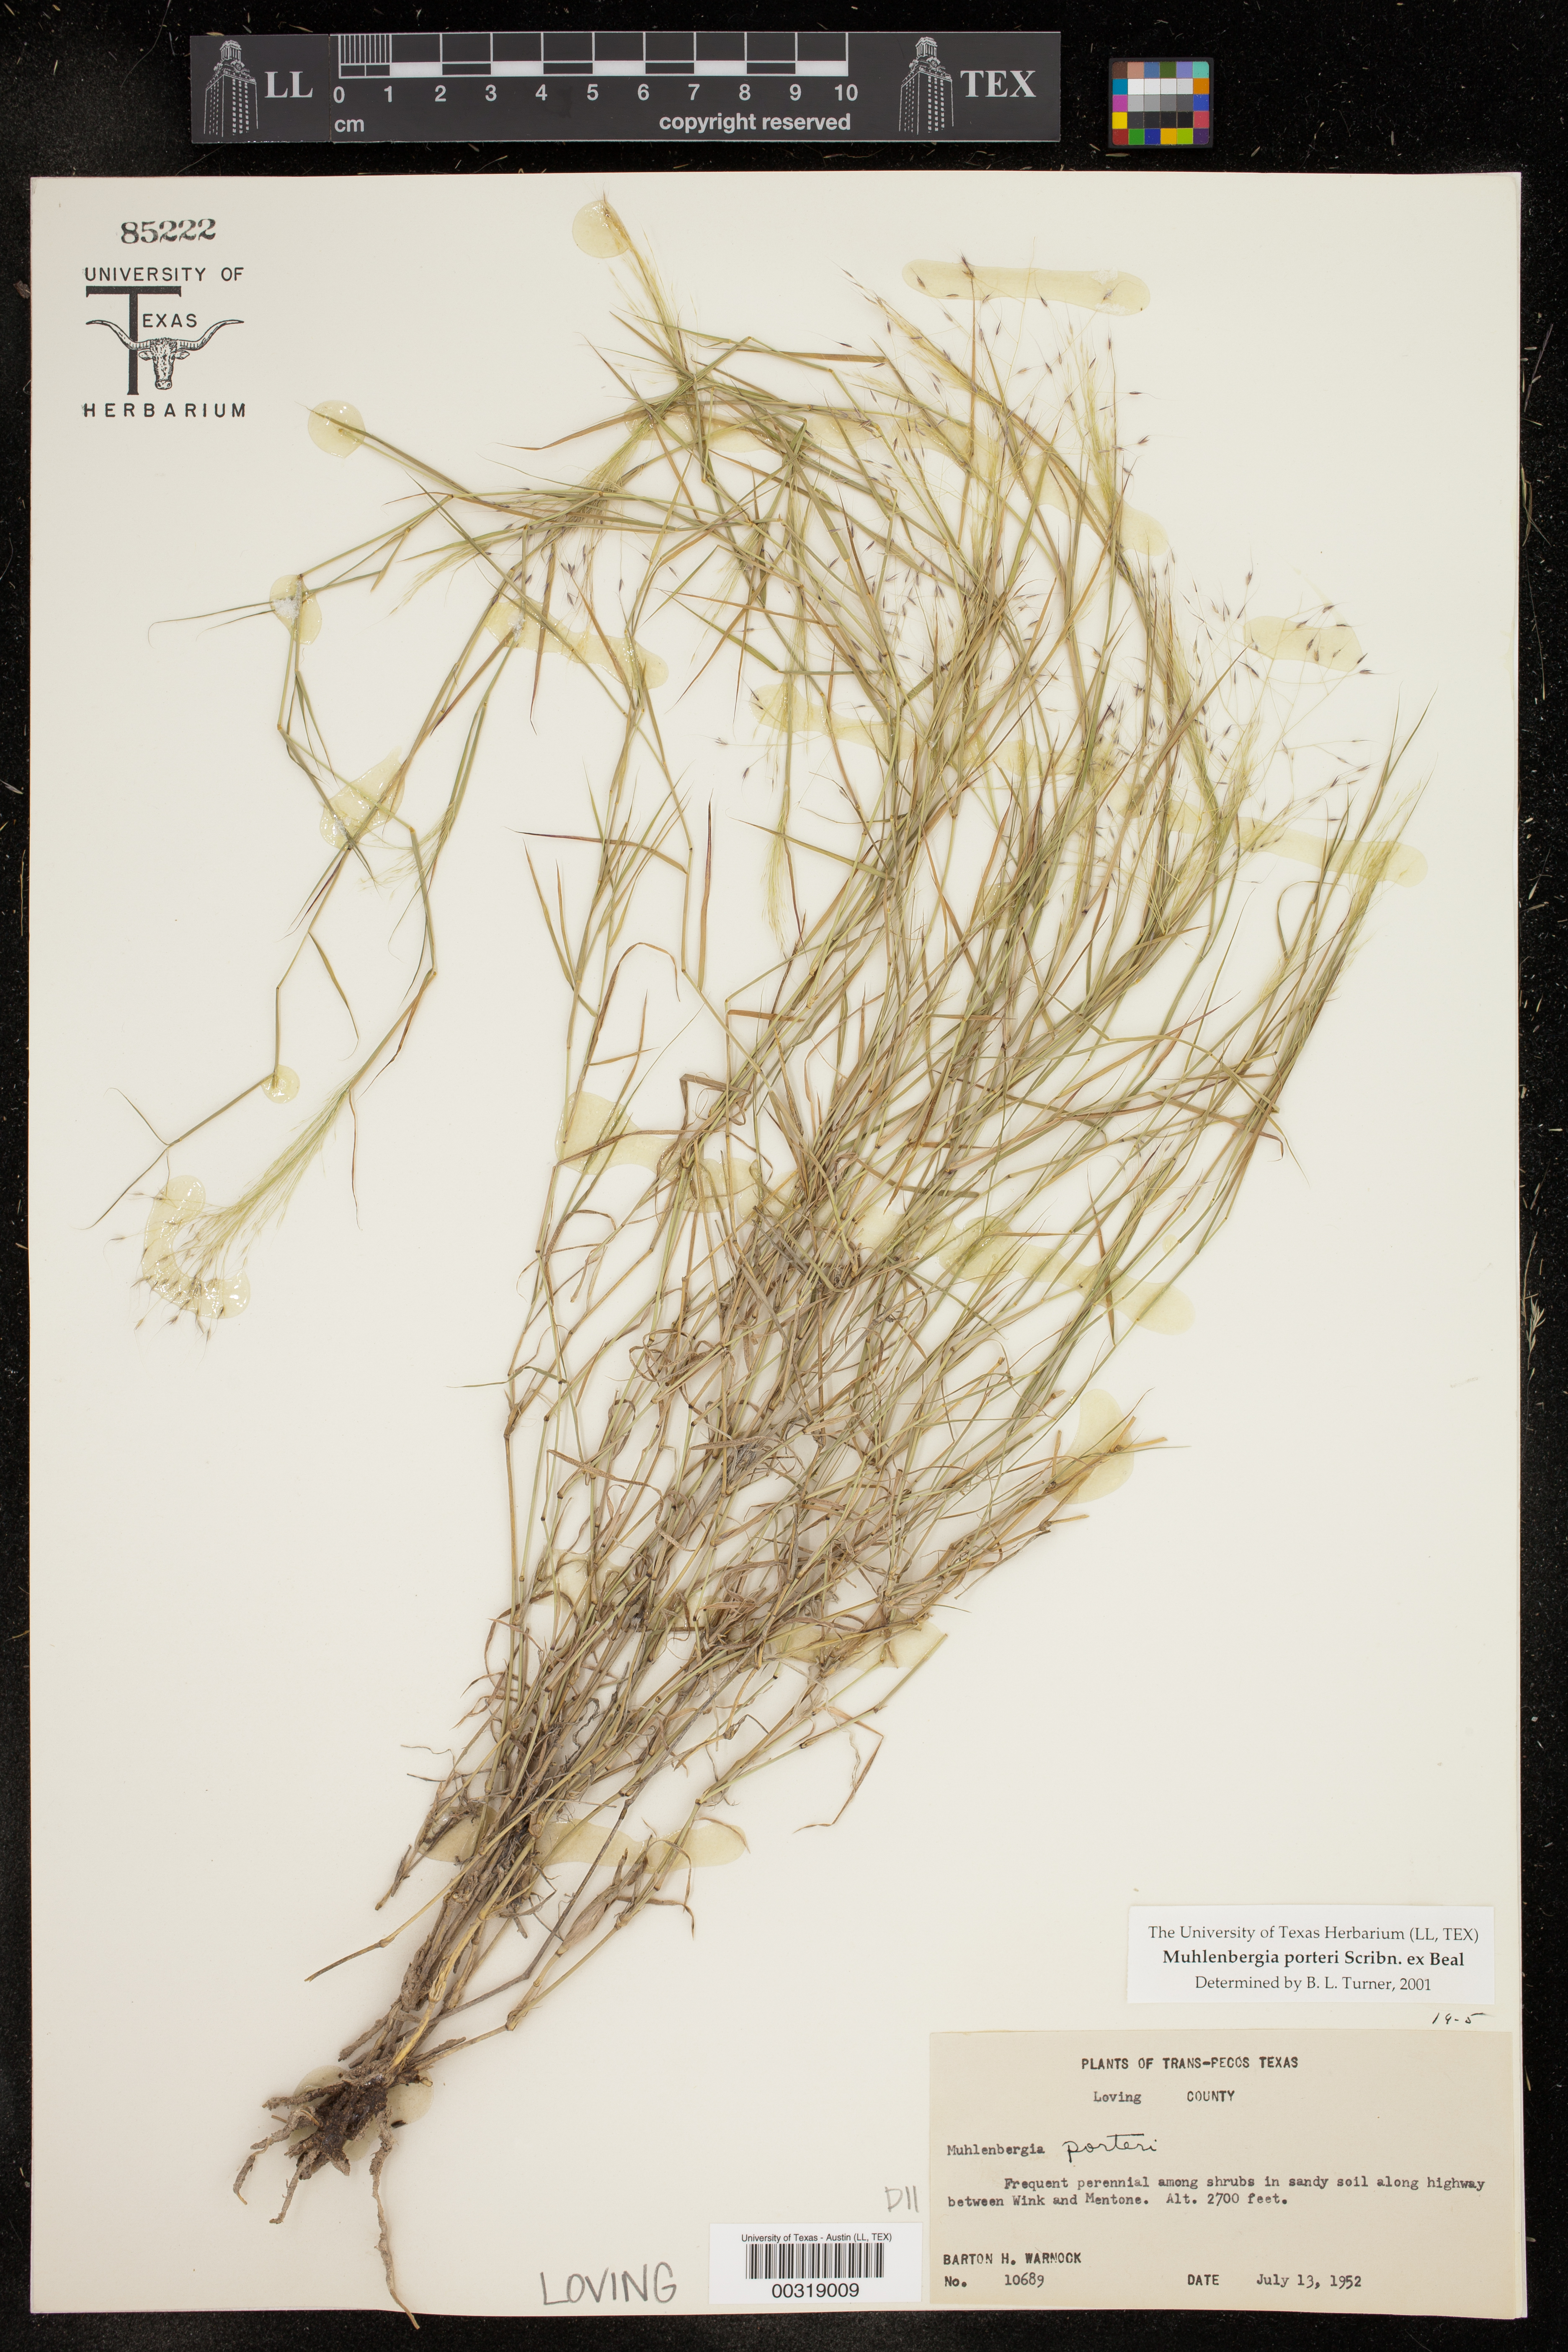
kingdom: Plantae
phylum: Tracheophyta
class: Liliopsida
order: Poales
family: Poaceae
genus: Muhlenbergia
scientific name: Muhlenbergia porteri
